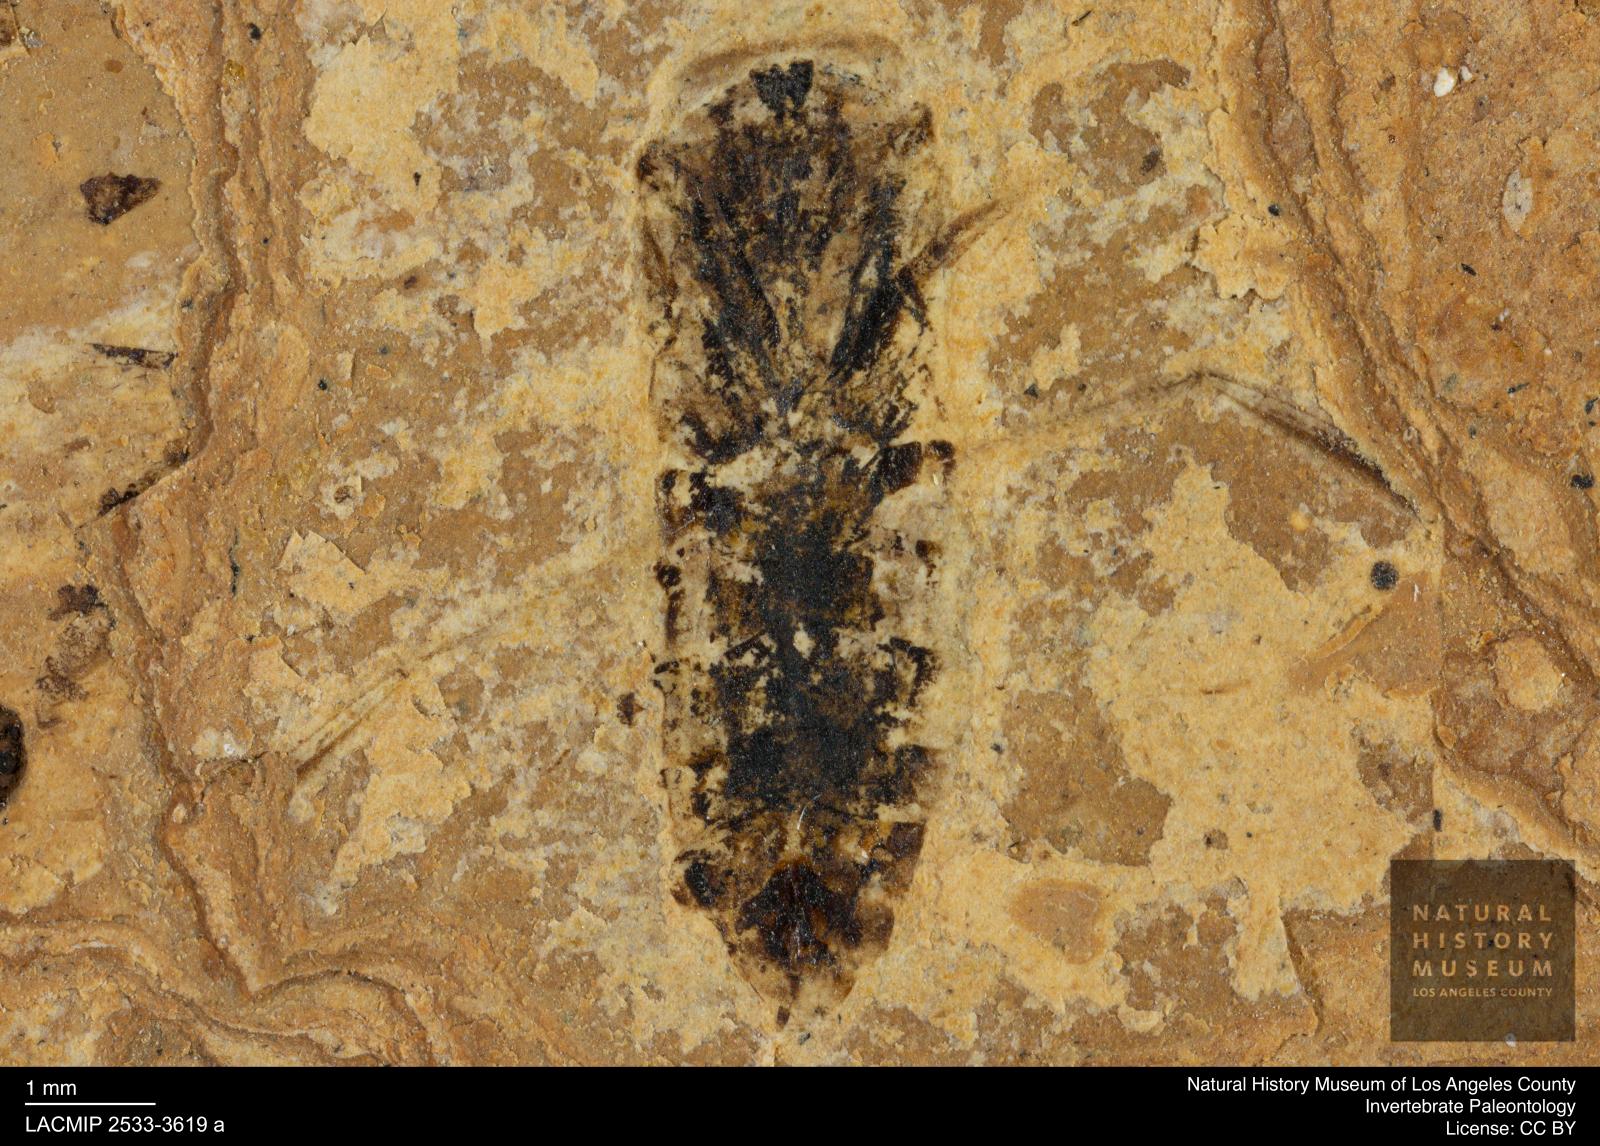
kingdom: Animalia
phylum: Arthropoda
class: Insecta
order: Hemiptera
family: Notonectidae
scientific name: Notonectidae
